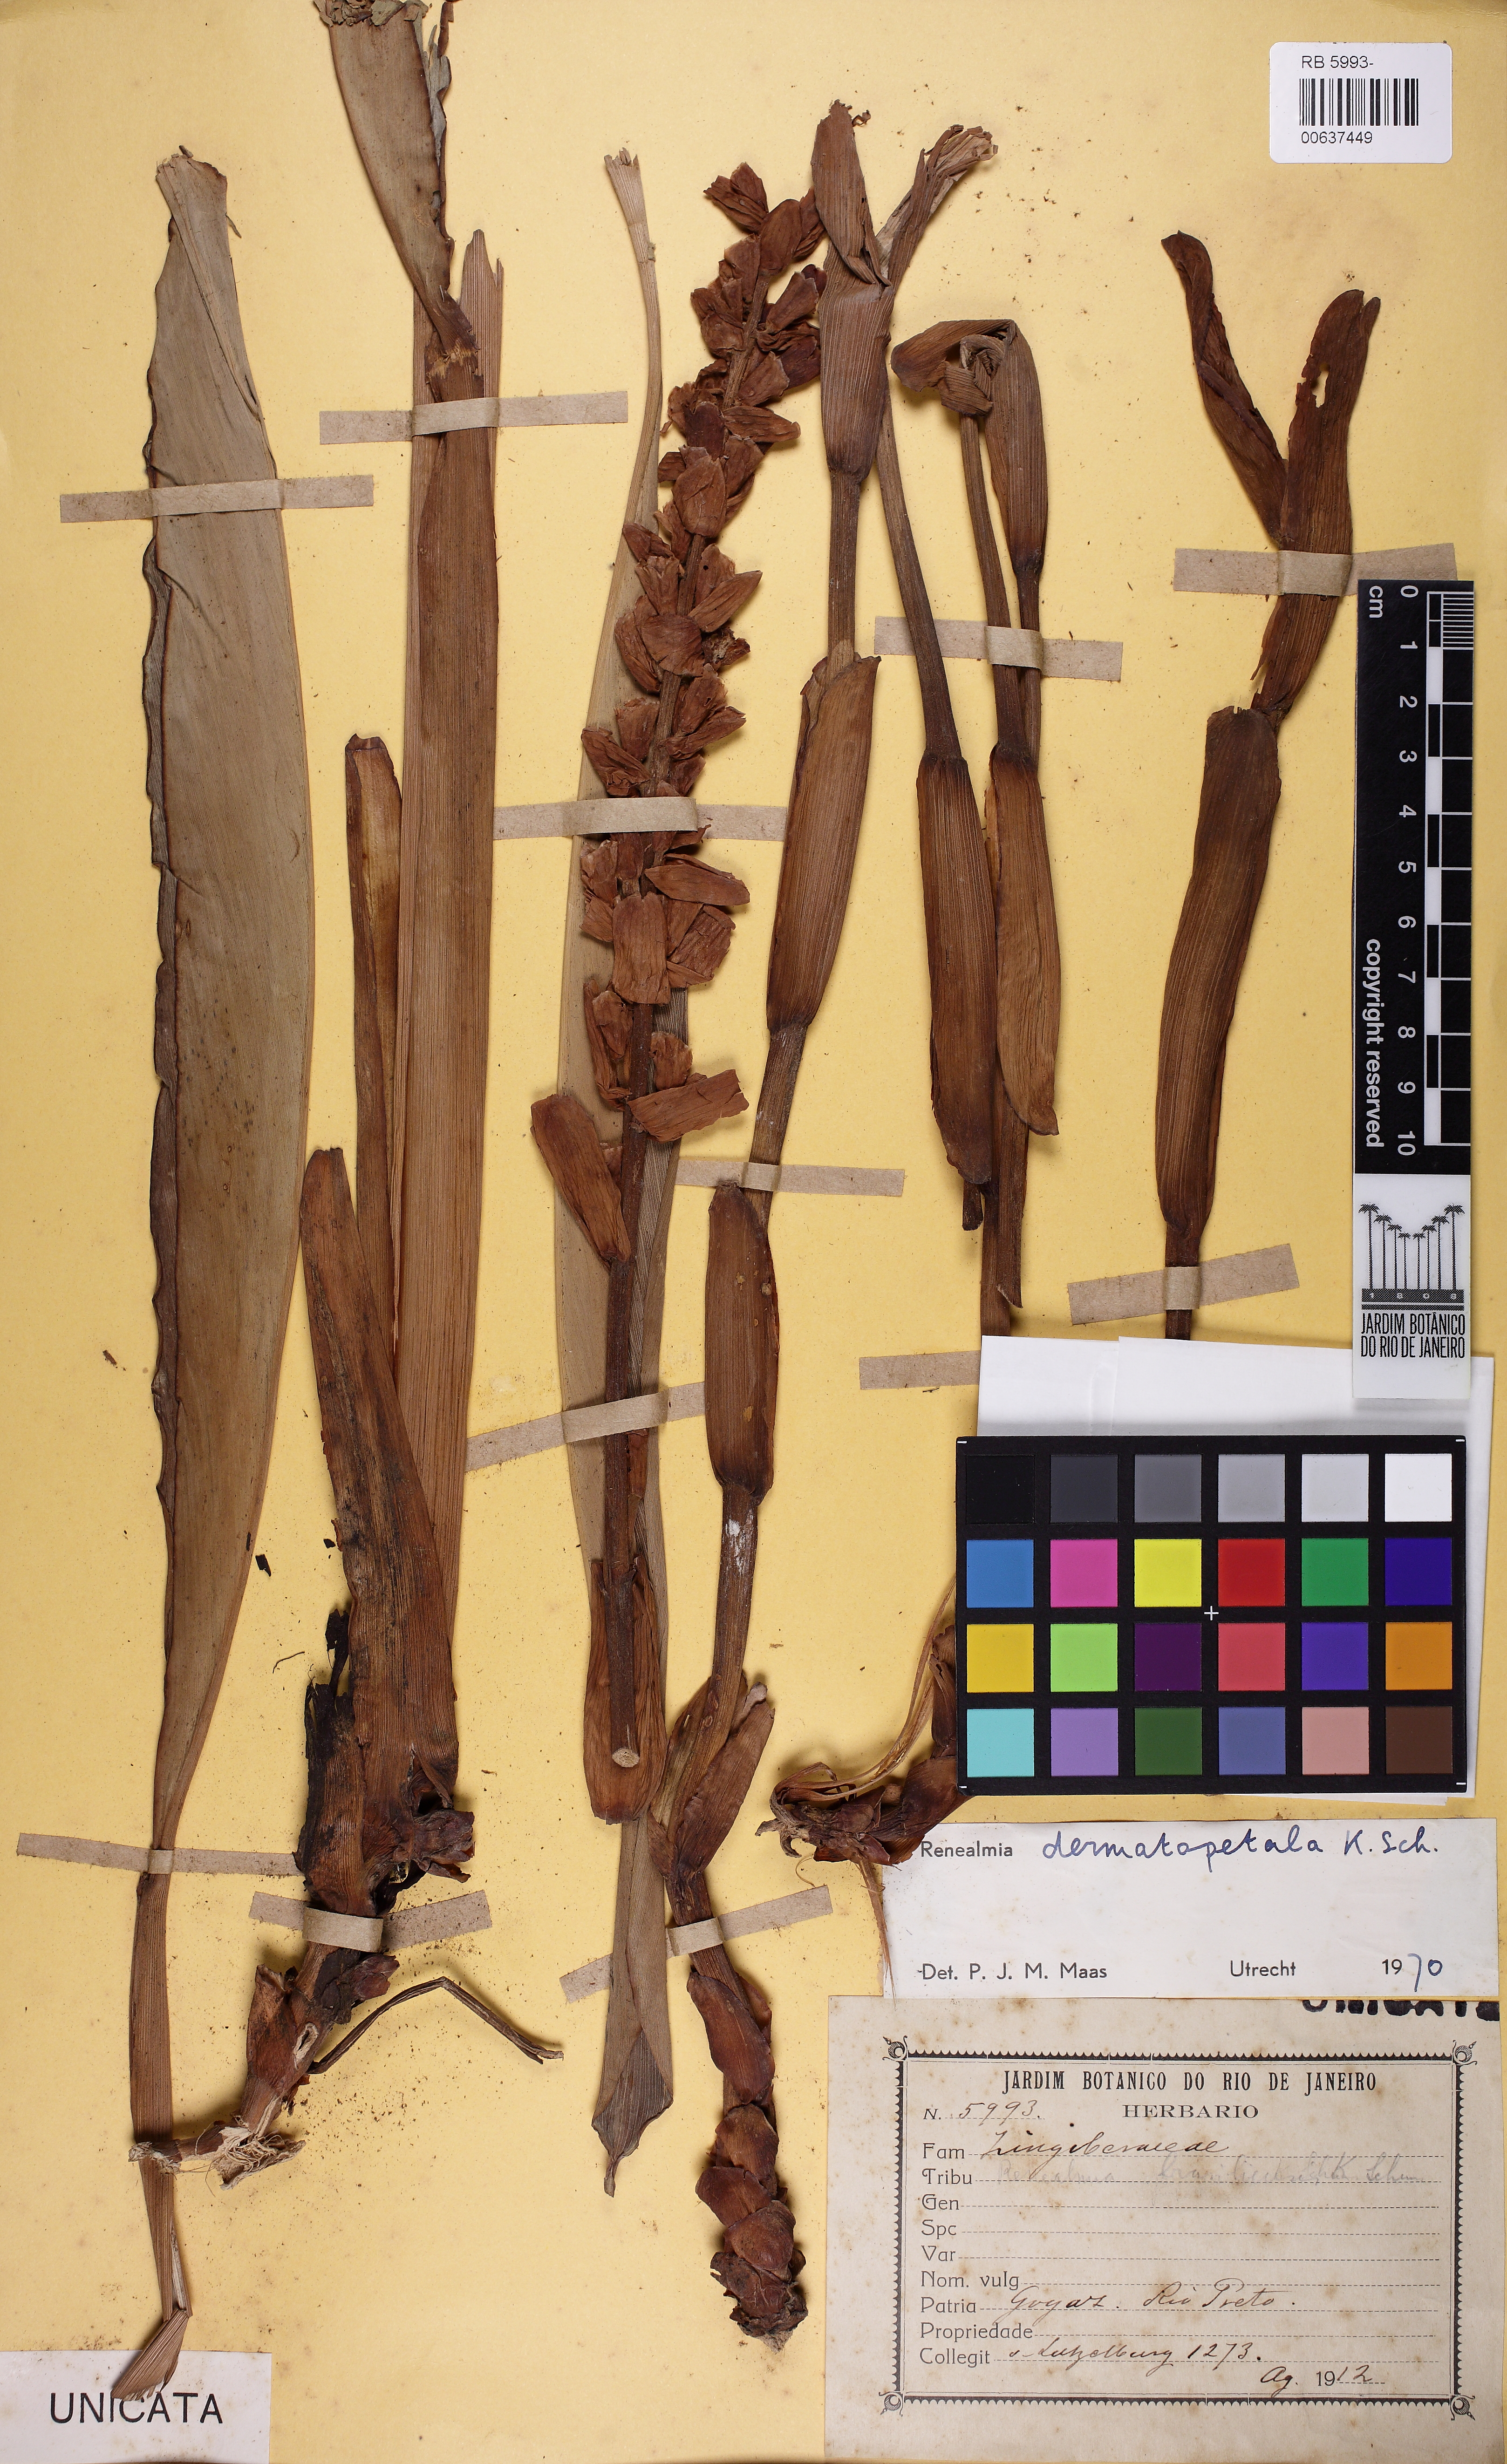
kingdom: Plantae
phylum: Tracheophyta
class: Liliopsida
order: Zingiberales
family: Zingiberaceae
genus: Renealmia
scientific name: Renealmia dermatopetala
